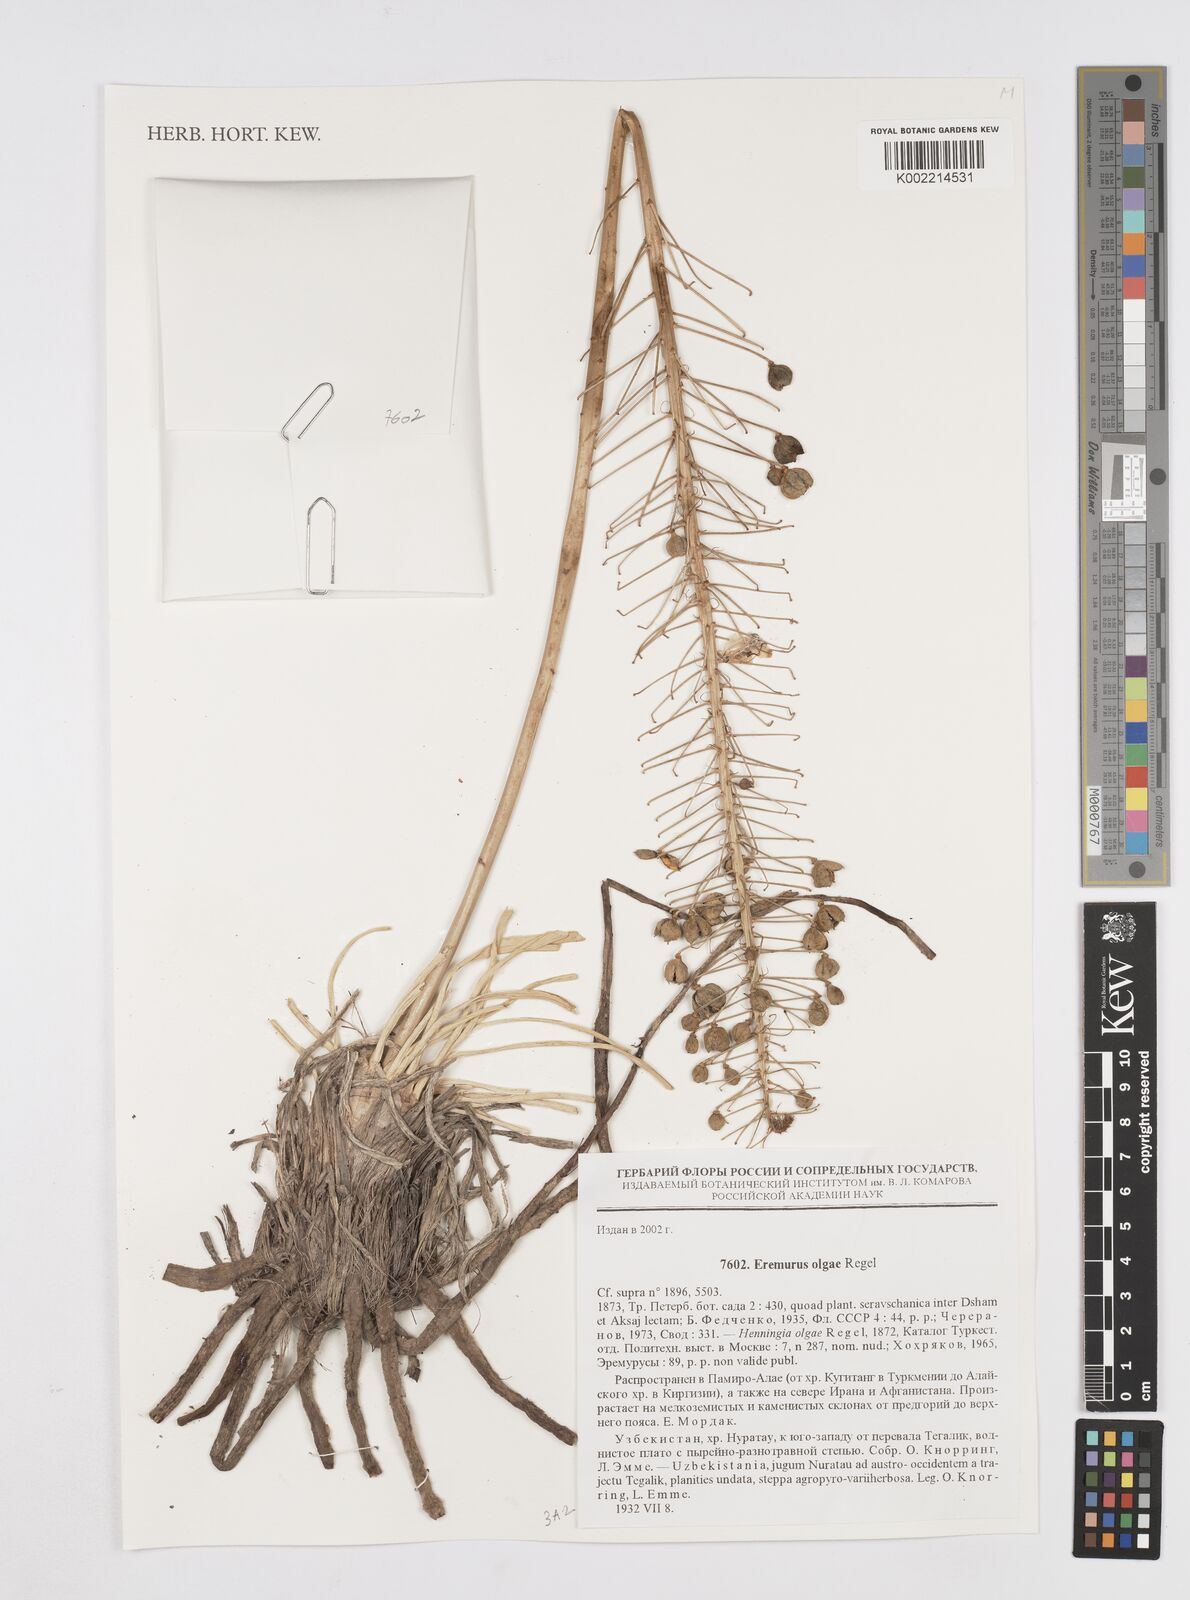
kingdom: Plantae
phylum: Tracheophyta
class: Liliopsida
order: Asparagales
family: Asphodelaceae
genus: Eremurus
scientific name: Eremurus olgae
